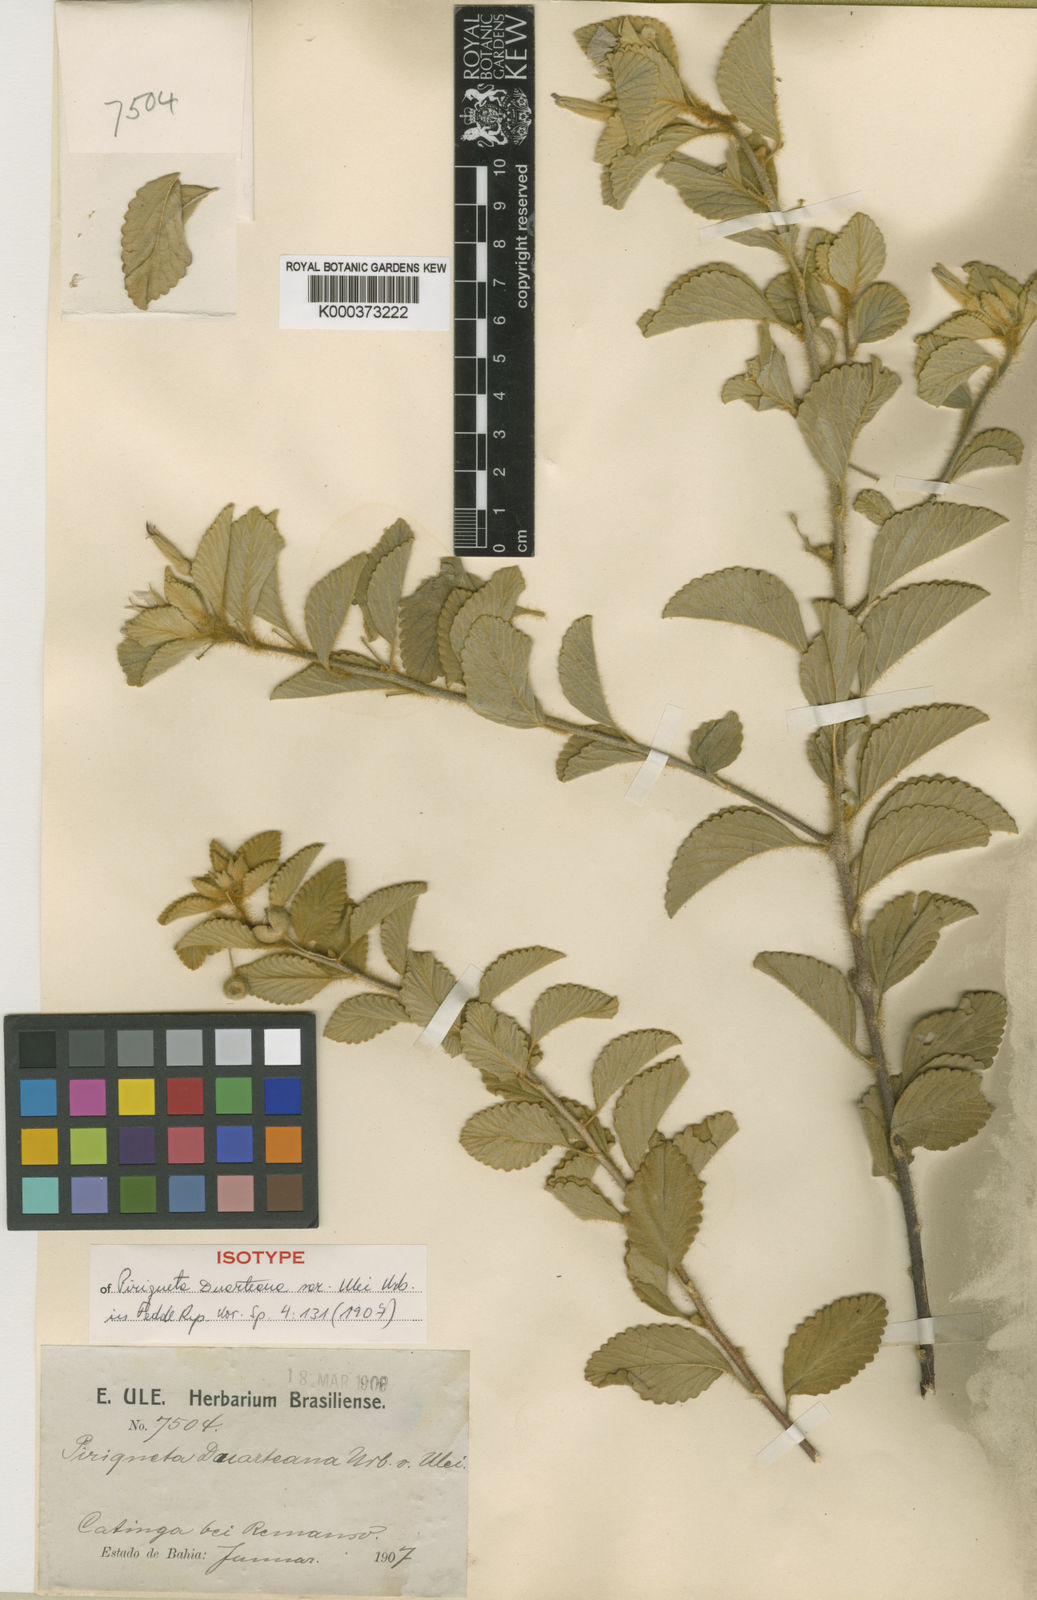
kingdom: Plantae
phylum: Tracheophyta
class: Magnoliopsida
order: Malpighiales
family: Turneraceae
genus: Piriqueta
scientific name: Piriqueta duarteana
